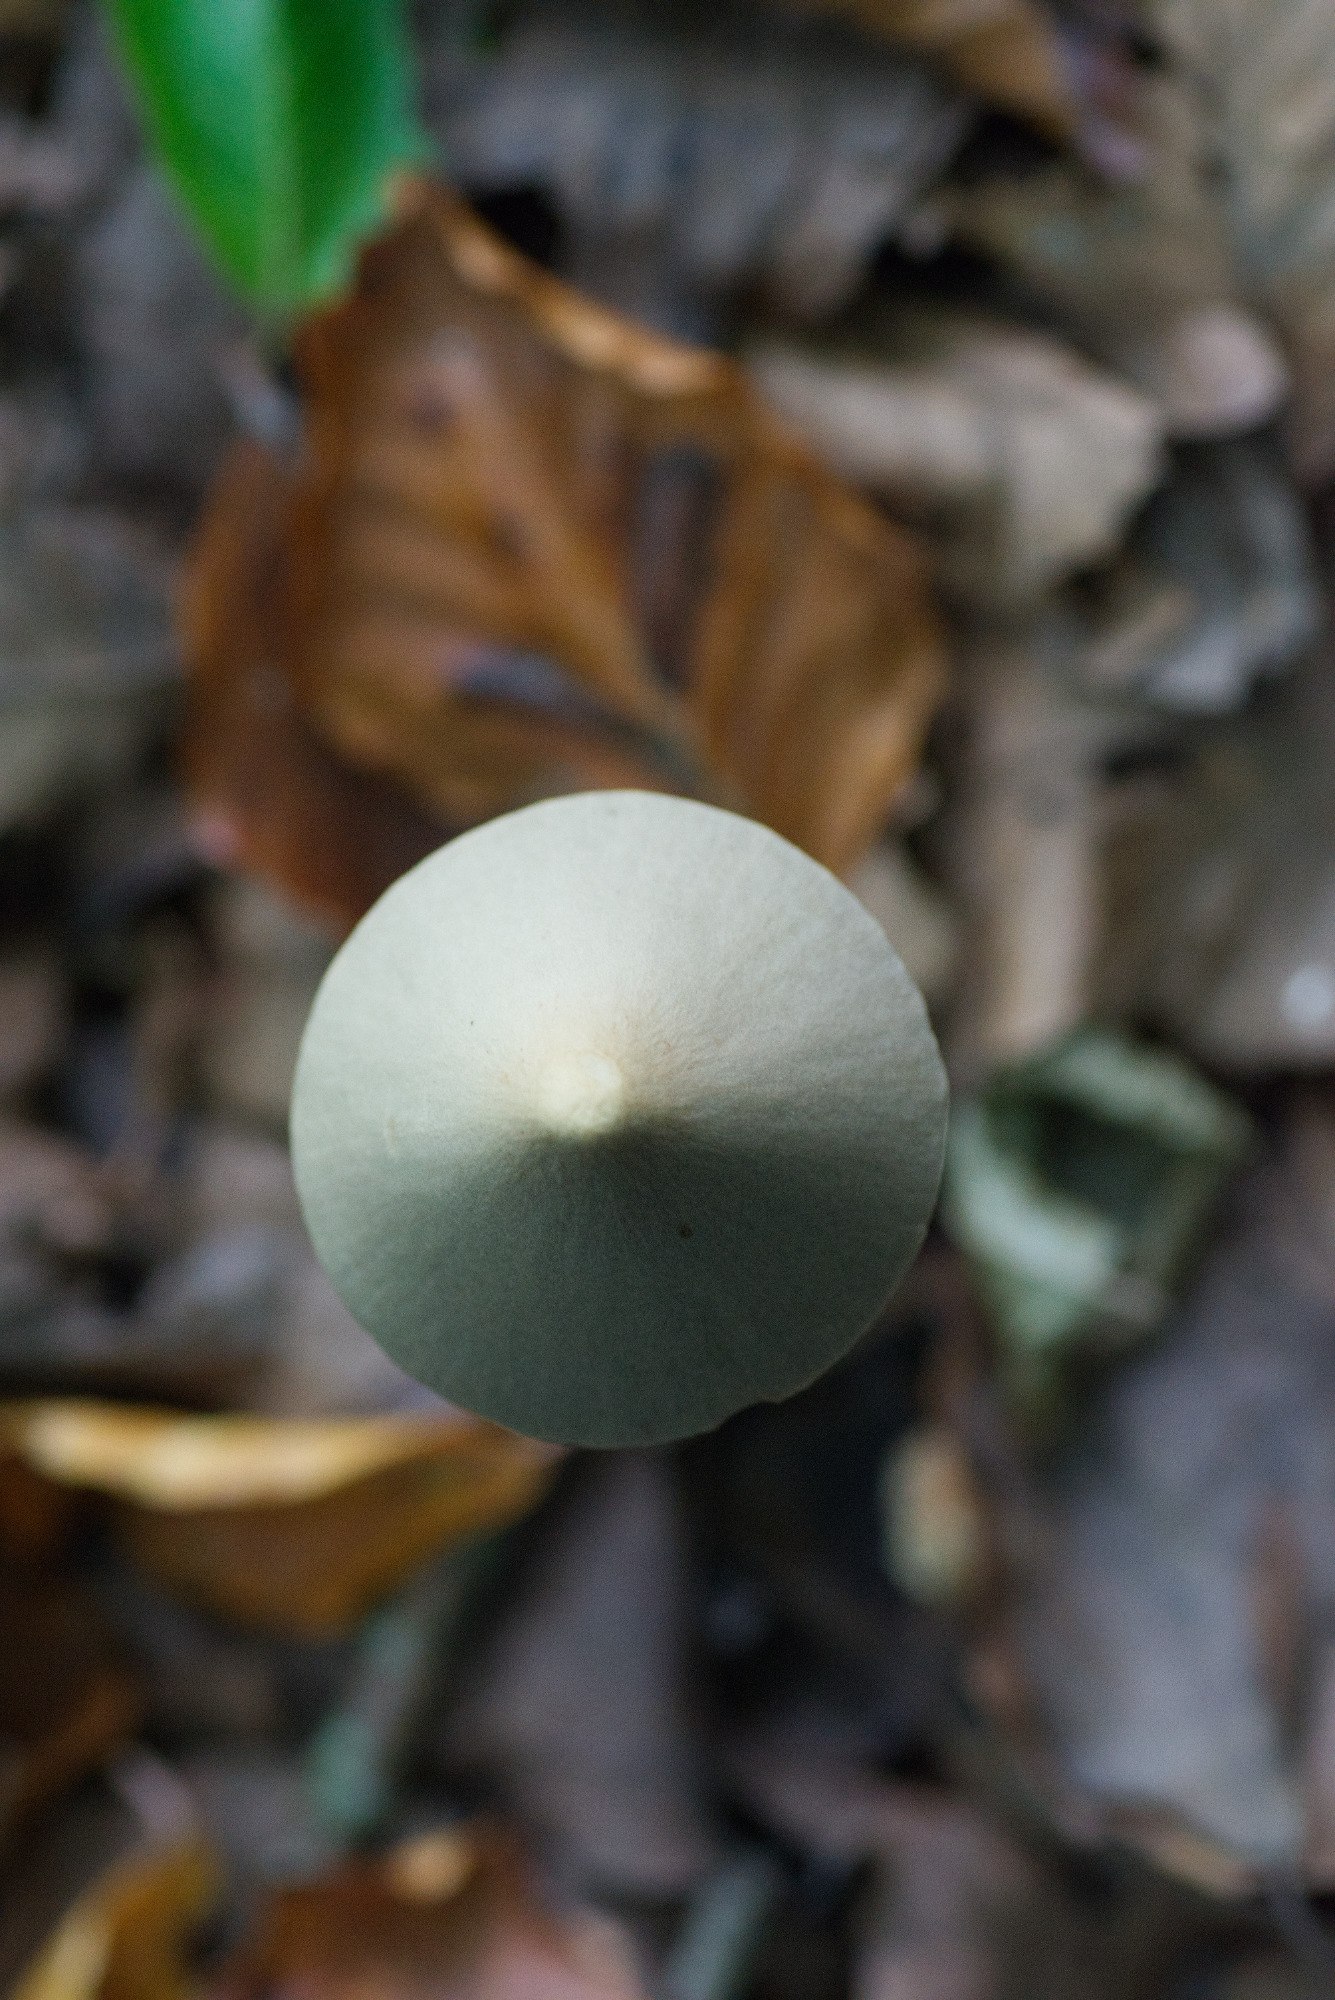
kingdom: Fungi
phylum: Basidiomycota
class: Agaricomycetes
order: Agaricales
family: Psathyrellaceae
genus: Psathyrella
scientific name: Psathyrella
